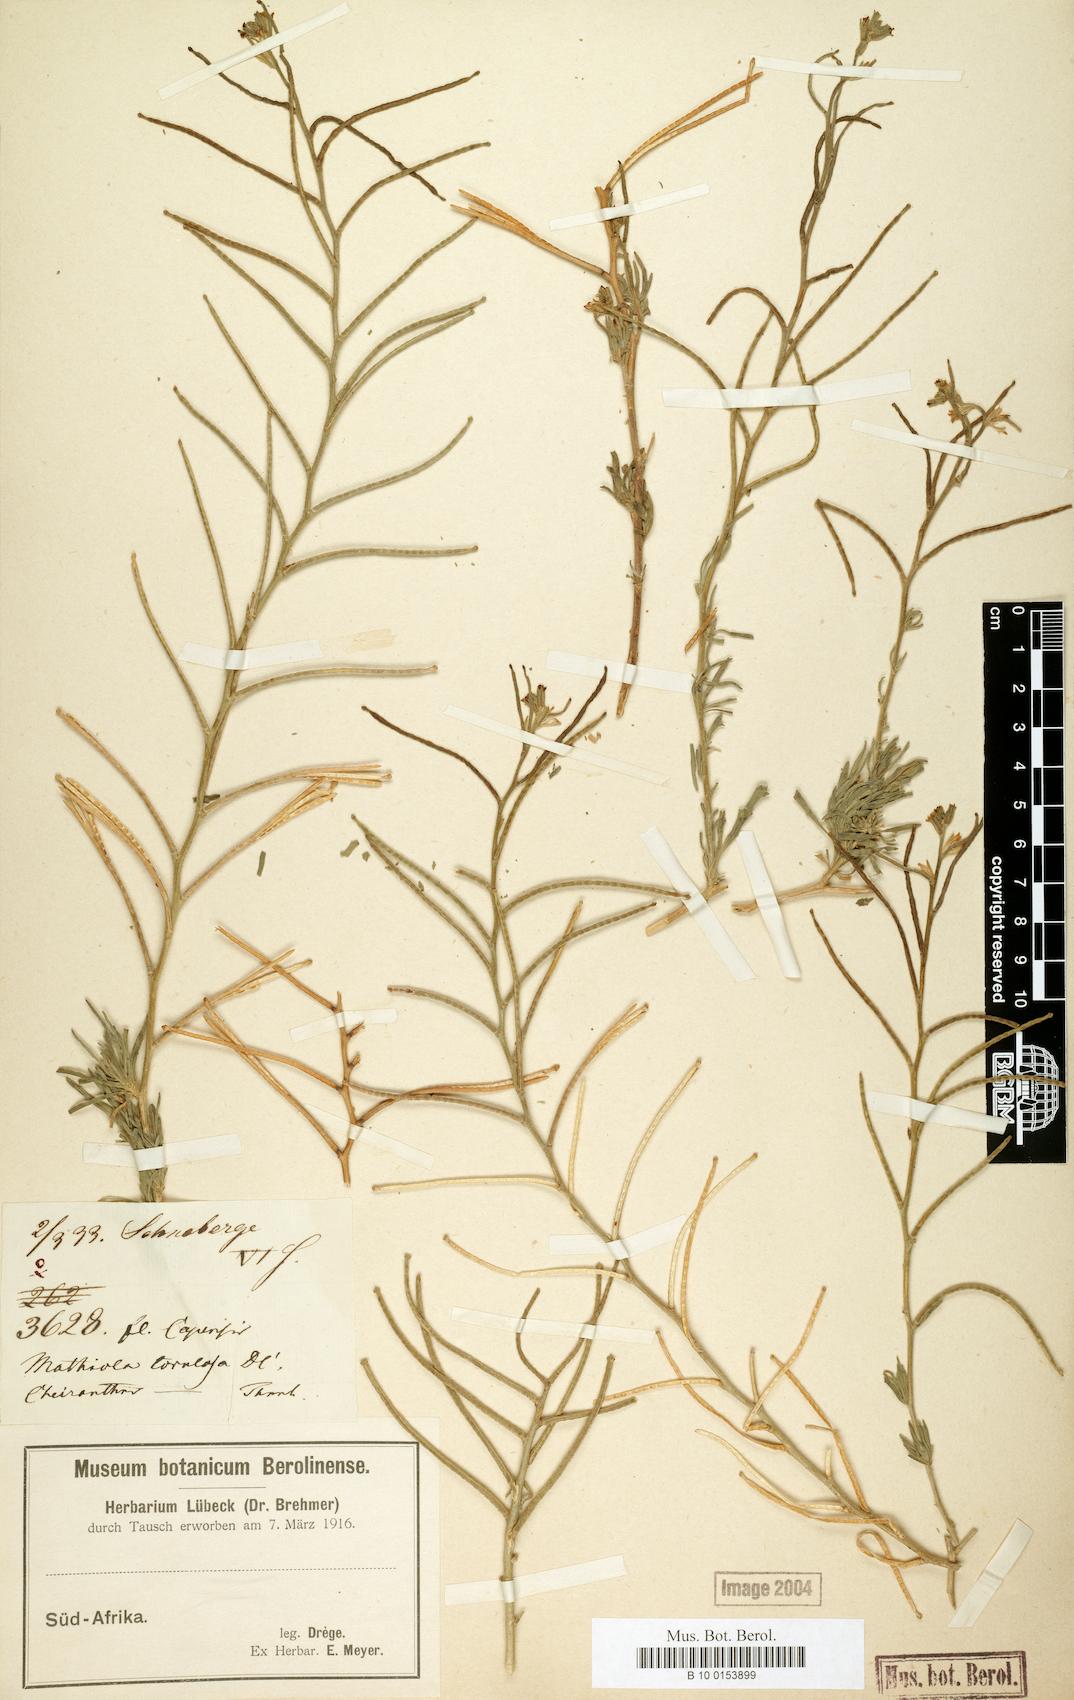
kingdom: Plantae
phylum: Tracheophyta
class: Magnoliopsida
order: Brassicales
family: Brassicaceae
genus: Matthiola
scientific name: Matthiola torulosa
